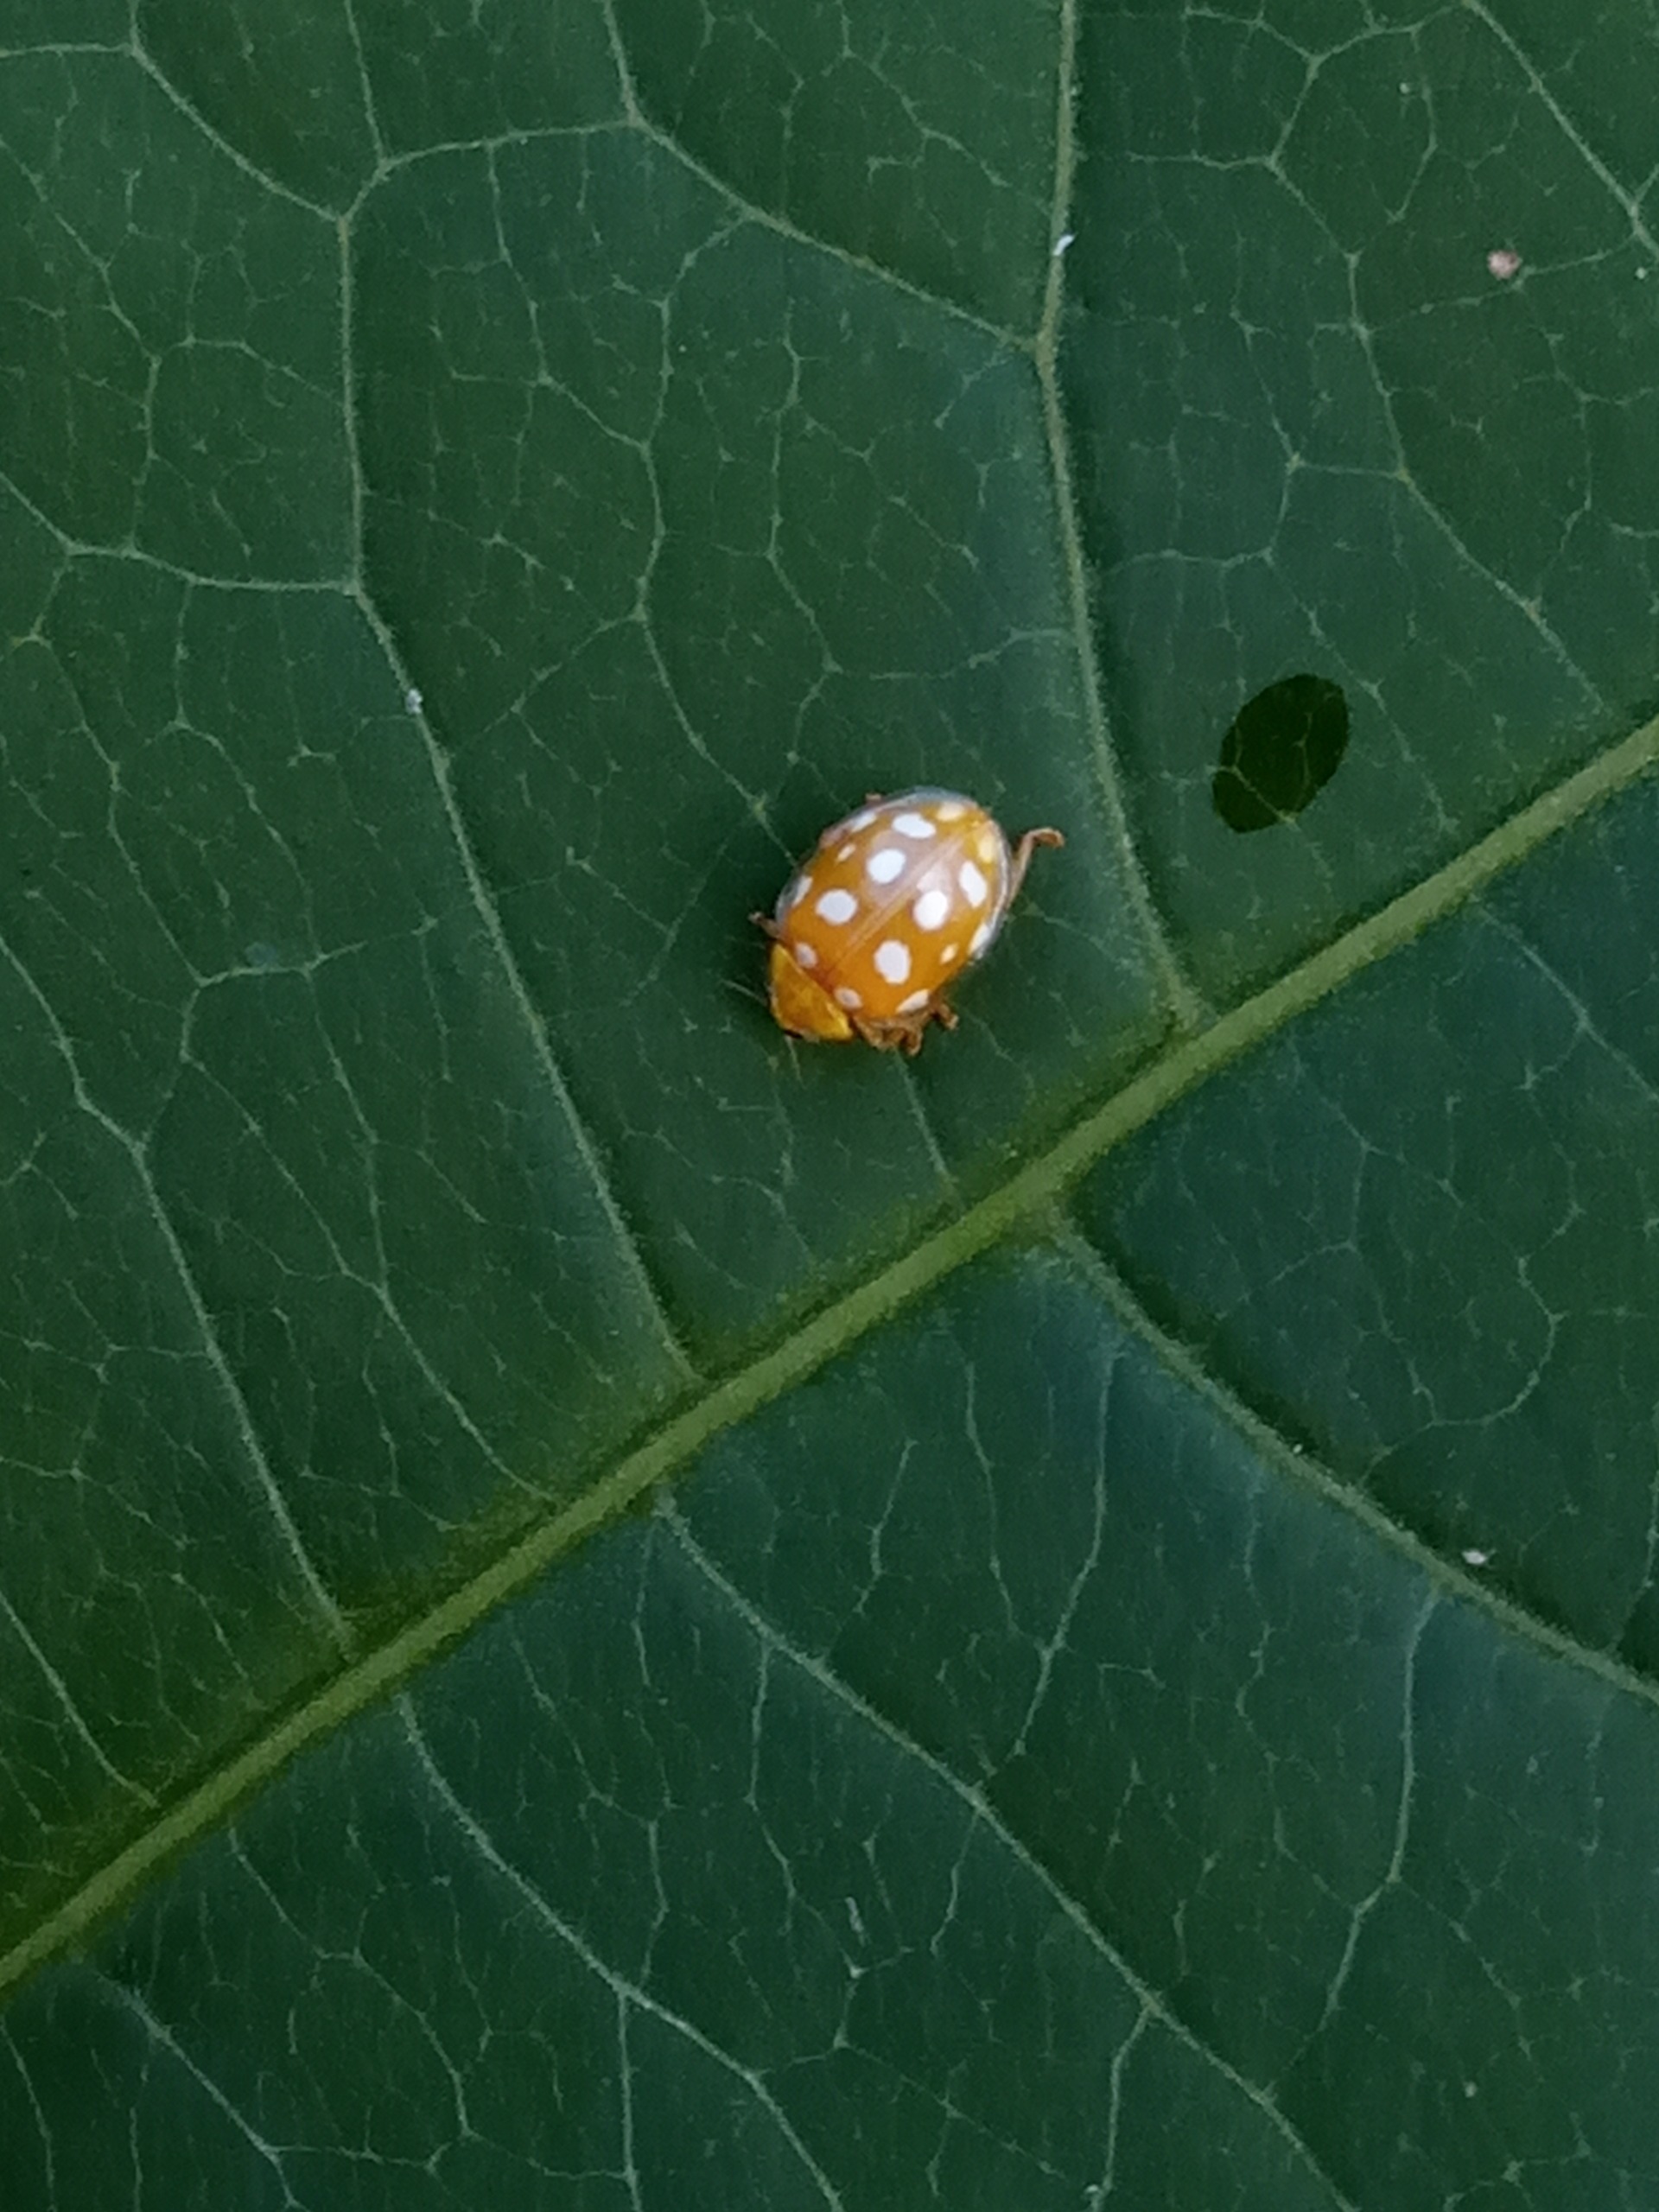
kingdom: Animalia
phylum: Arthropoda
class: Insecta
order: Coleoptera
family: Coccinellidae
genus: Halyzia
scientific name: Halyzia sedecimguttata
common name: Sekstenplettet mariehøne
